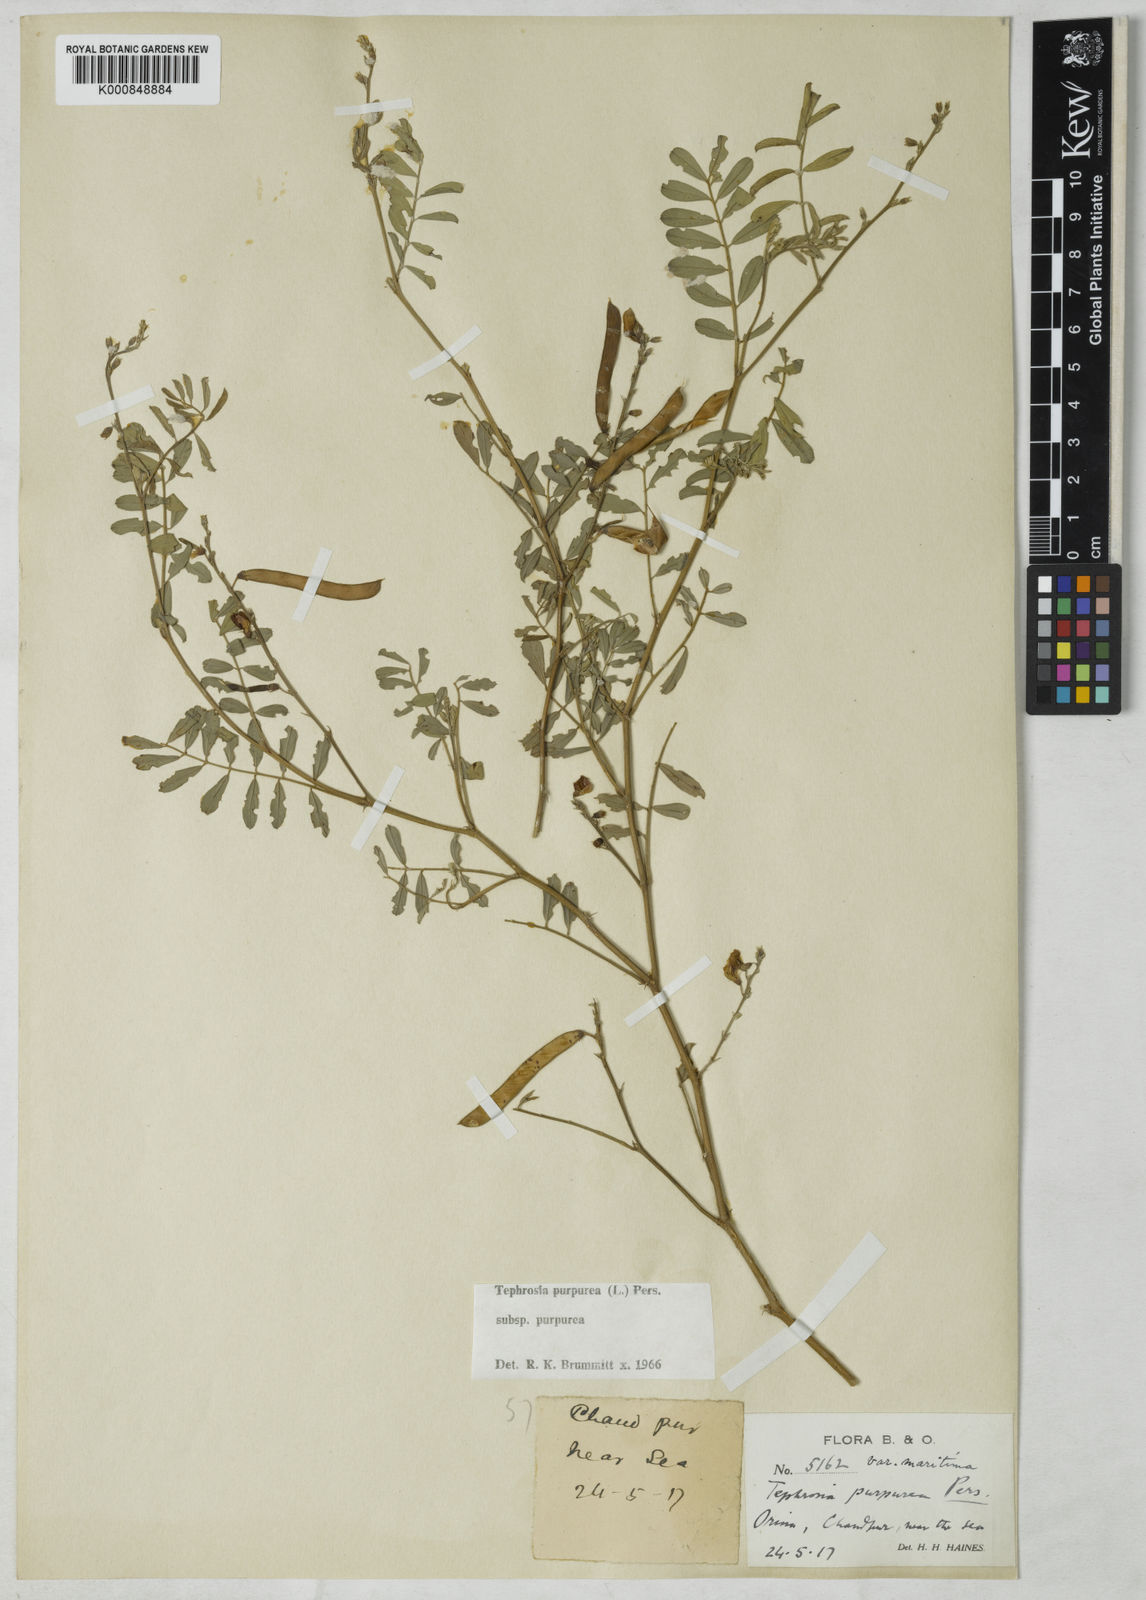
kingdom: Plantae
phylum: Tracheophyta
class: Magnoliopsida
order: Fabales
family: Fabaceae
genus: Tephrosia
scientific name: Tephrosia purpurea
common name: Fishpoison
